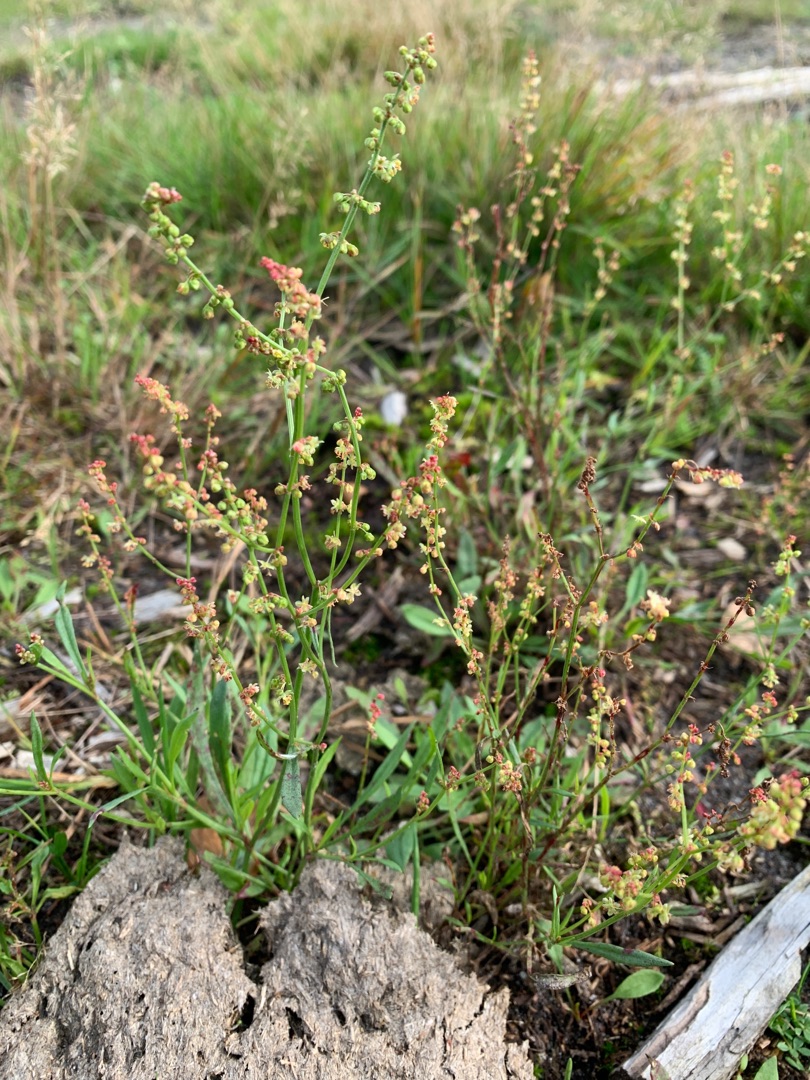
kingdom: Plantae
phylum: Tracheophyta
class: Magnoliopsida
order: Caryophyllales
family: Polygonaceae
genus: Rumex
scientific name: Rumex acetosella
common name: Rødknæ
